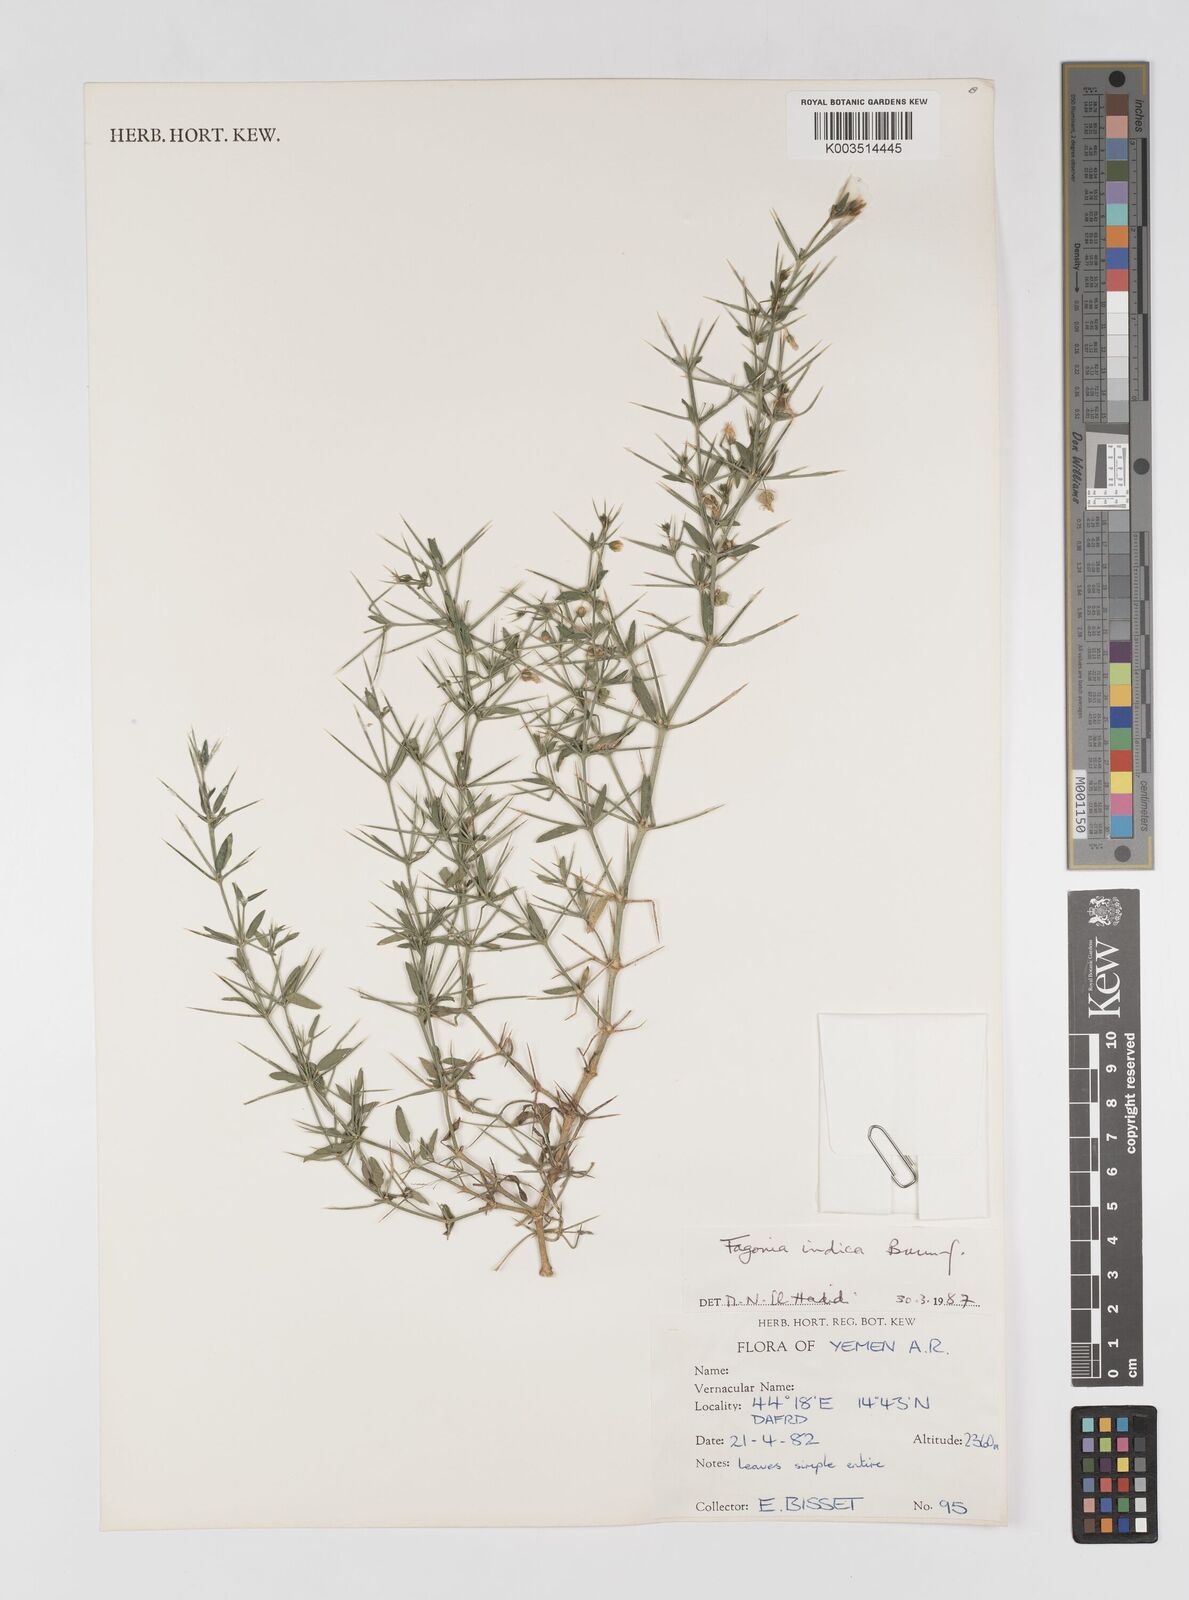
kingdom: Plantae
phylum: Tracheophyta
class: Magnoliopsida
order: Zygophyllales
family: Zygophyllaceae
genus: Fagonia
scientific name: Fagonia indica
